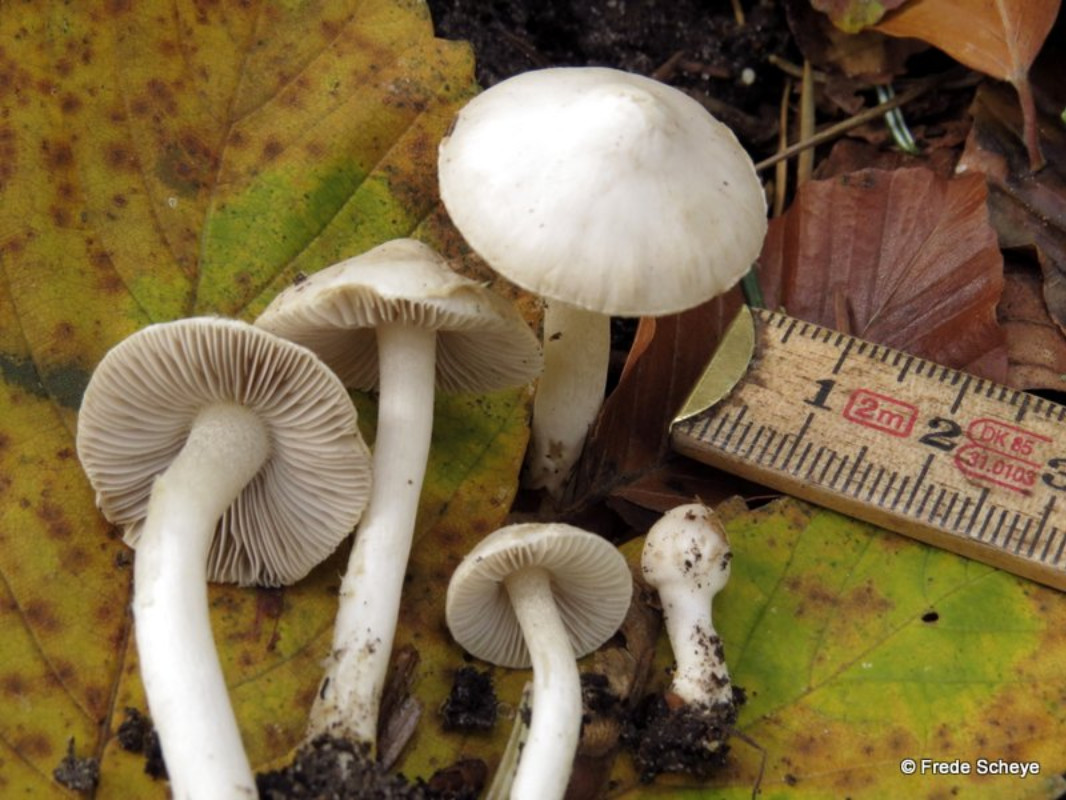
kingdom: Fungi
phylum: Basidiomycota
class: Agaricomycetes
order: Agaricales
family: Inocybaceae
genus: Inocybe
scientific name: Inocybe
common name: almindelig trævlhat
